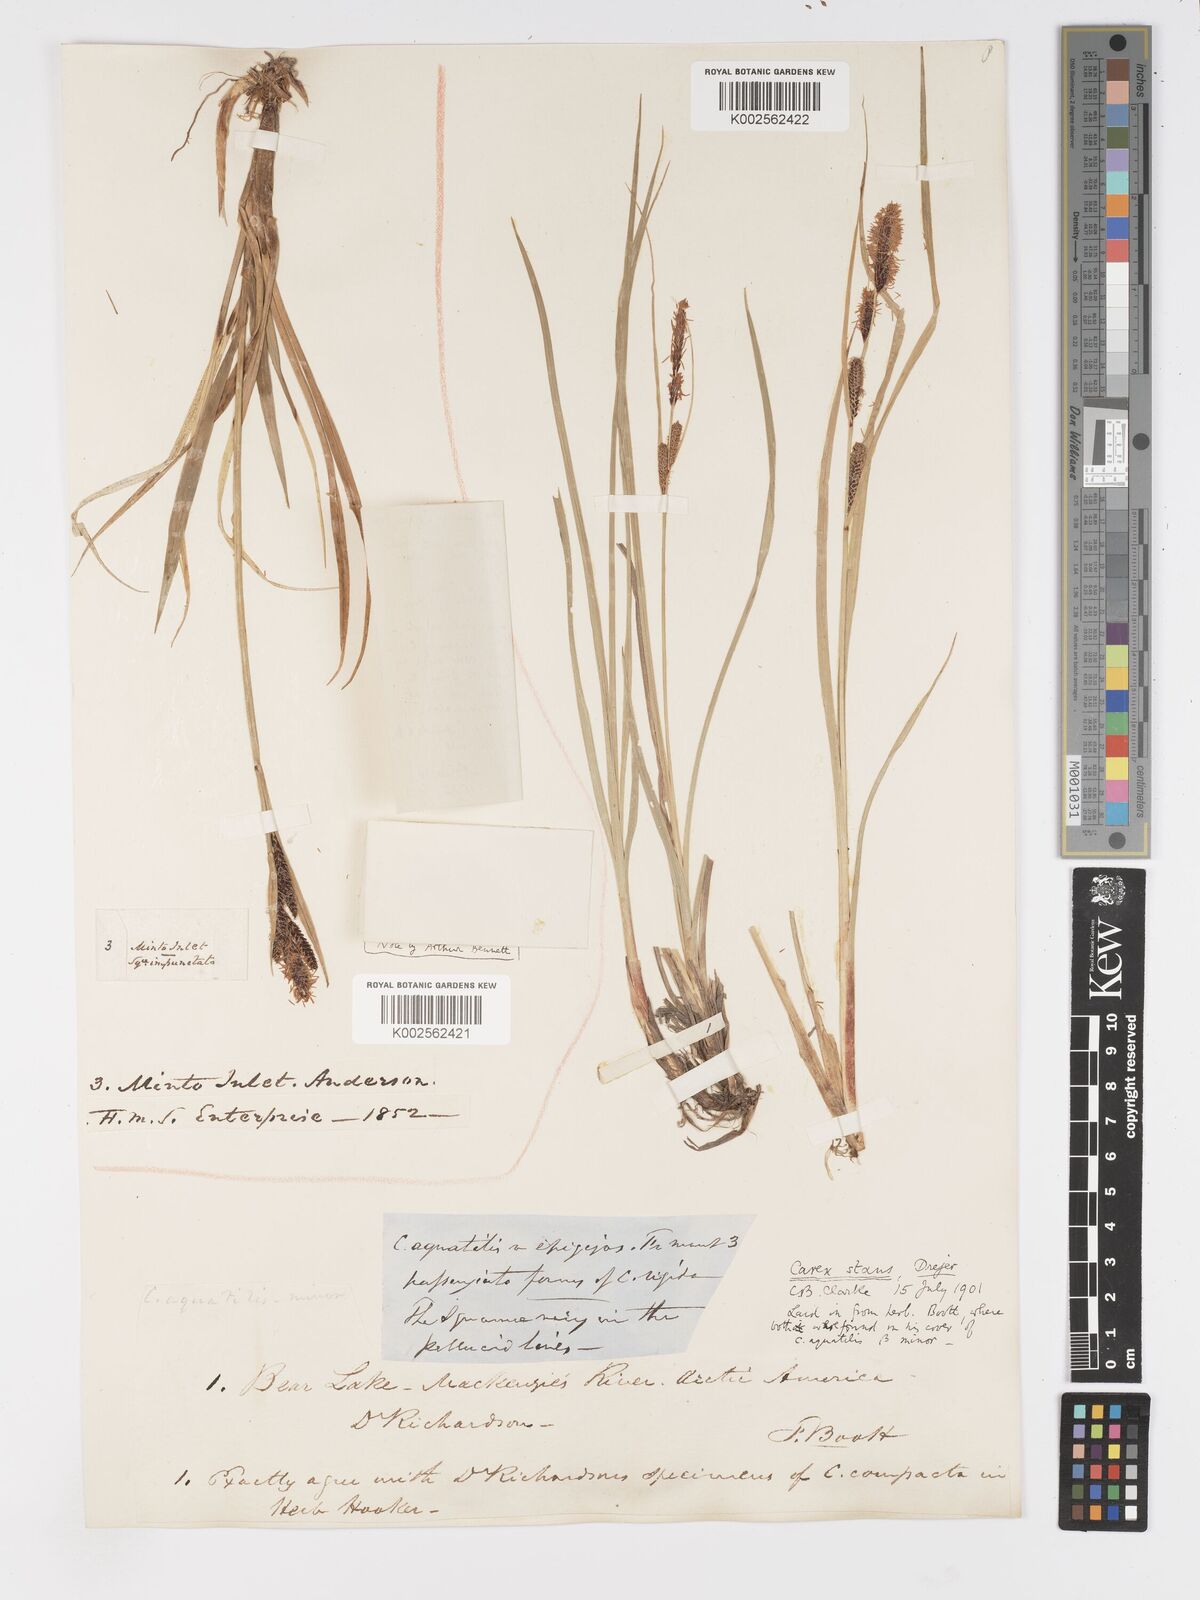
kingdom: Plantae
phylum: Tracheophyta
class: Liliopsida
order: Poales
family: Cyperaceae
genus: Carex
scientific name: Carex
